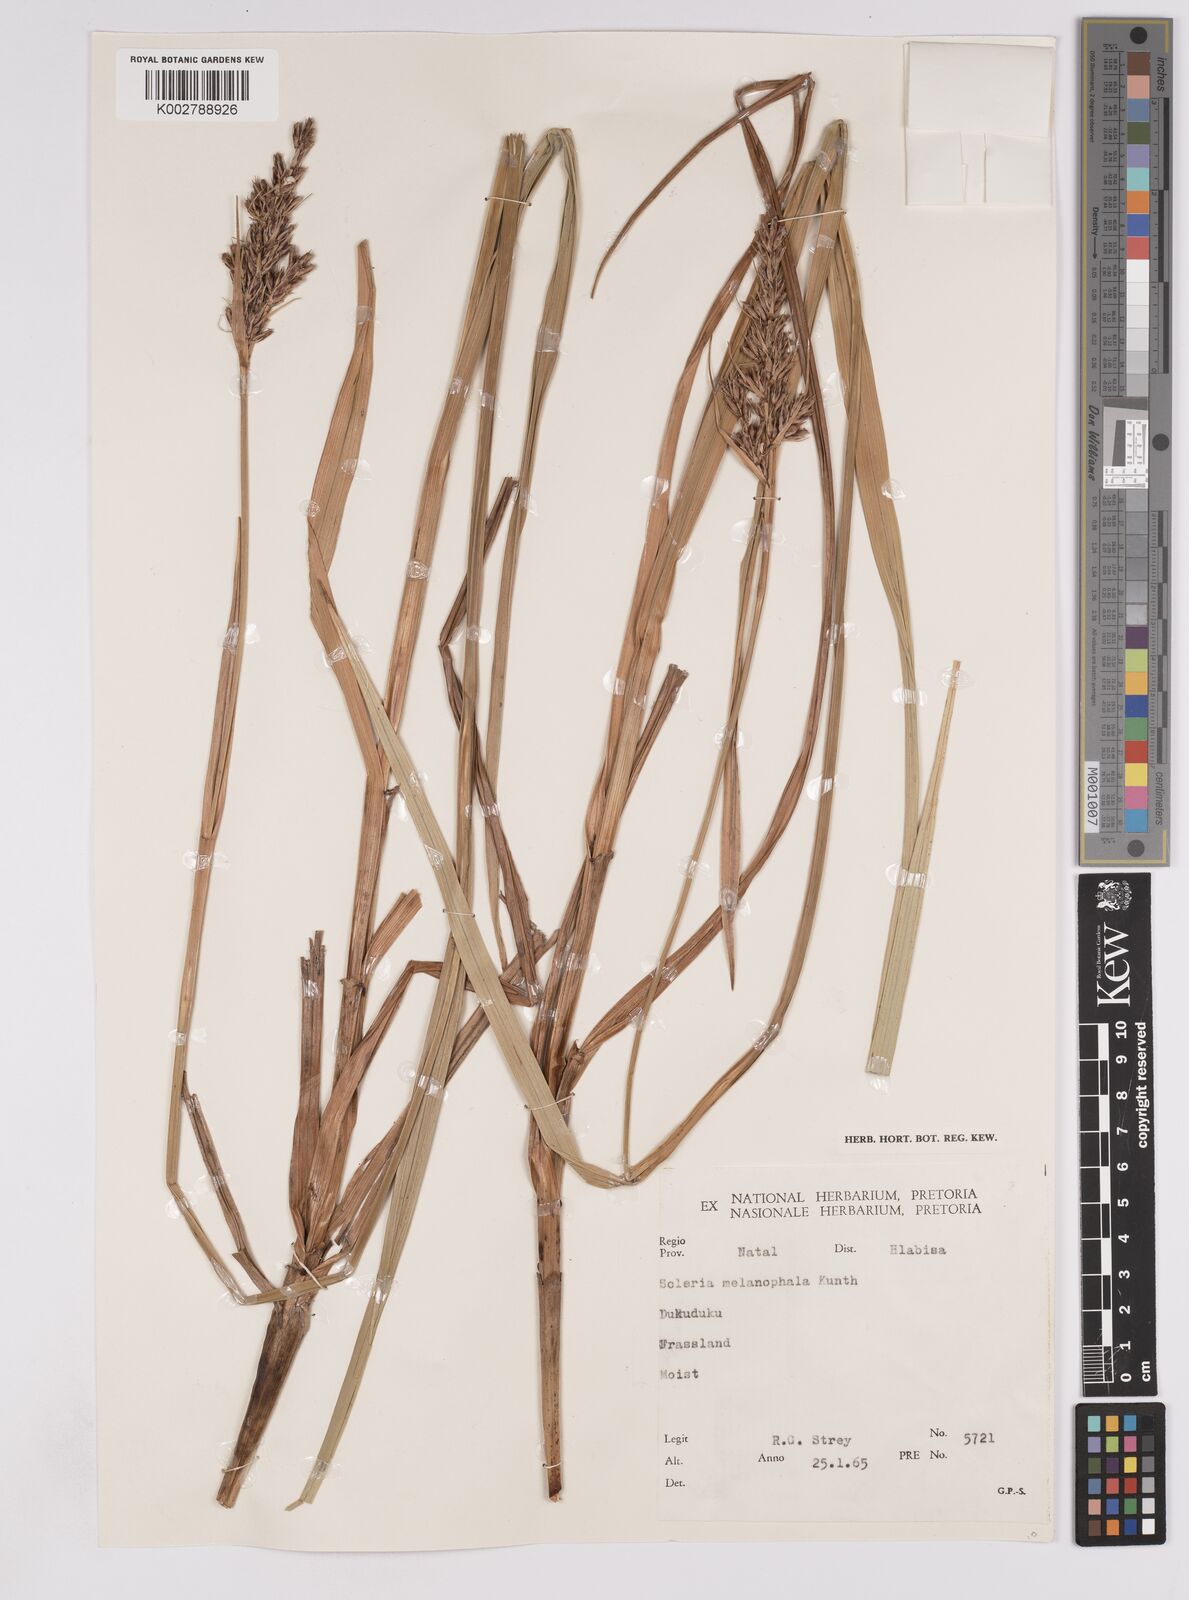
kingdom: Plantae
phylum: Tracheophyta
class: Liliopsida
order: Poales
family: Cyperaceae
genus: Scleria
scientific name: Scleria melanomphala
